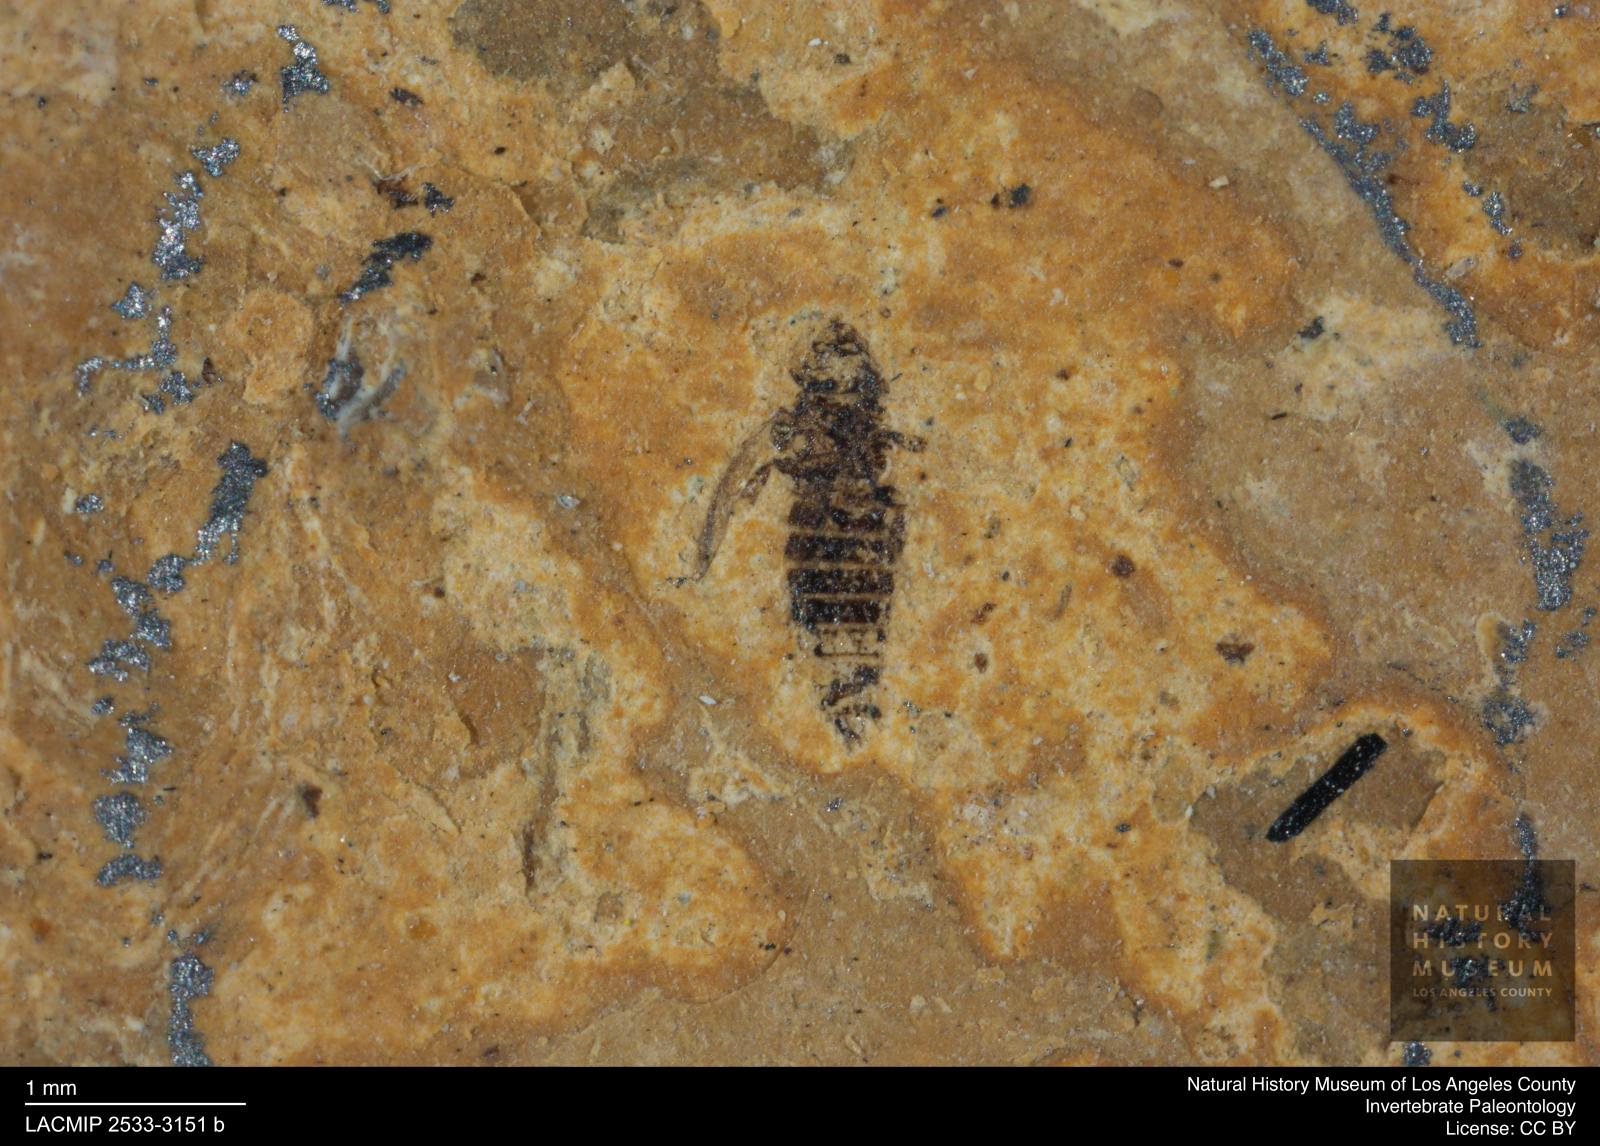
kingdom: Animalia
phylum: Arthropoda
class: Insecta
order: Thysanoptera
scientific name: Thysanoptera
